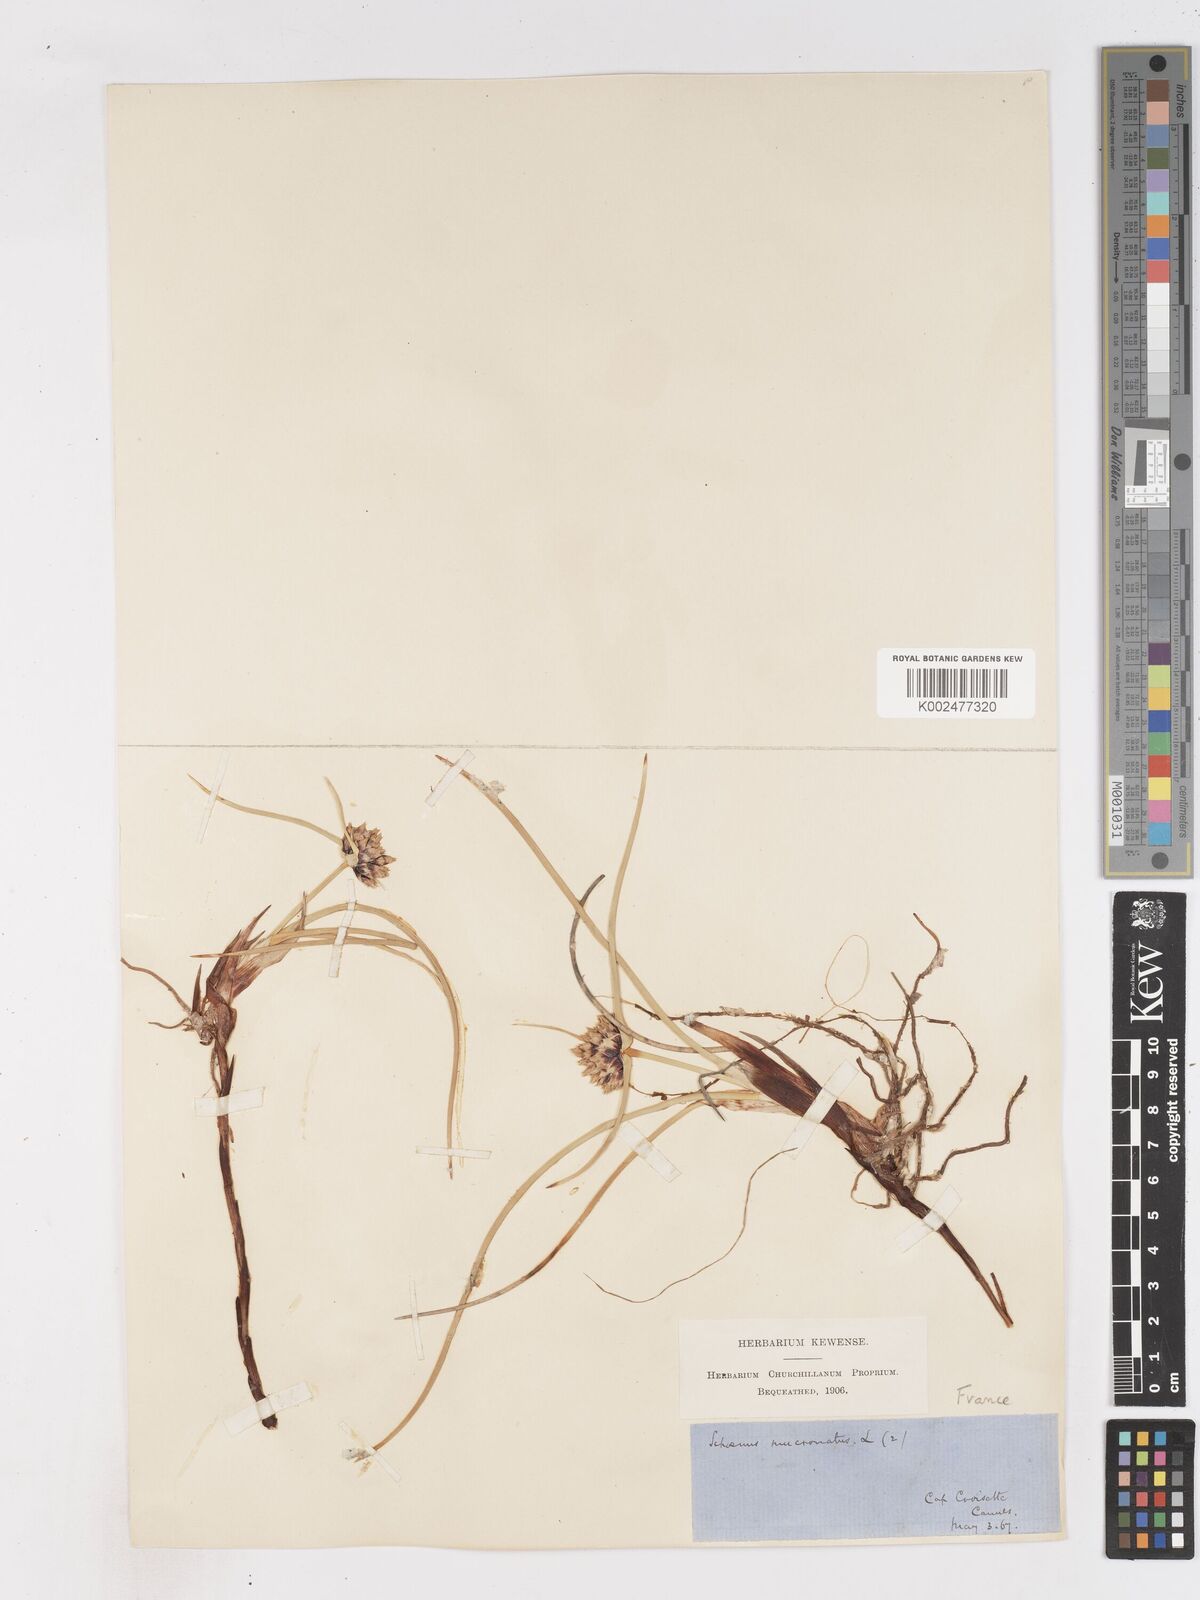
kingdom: Plantae
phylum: Tracheophyta
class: Liliopsida
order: Poales
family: Cyperaceae
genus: Cyperus
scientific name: Cyperus capitatus
